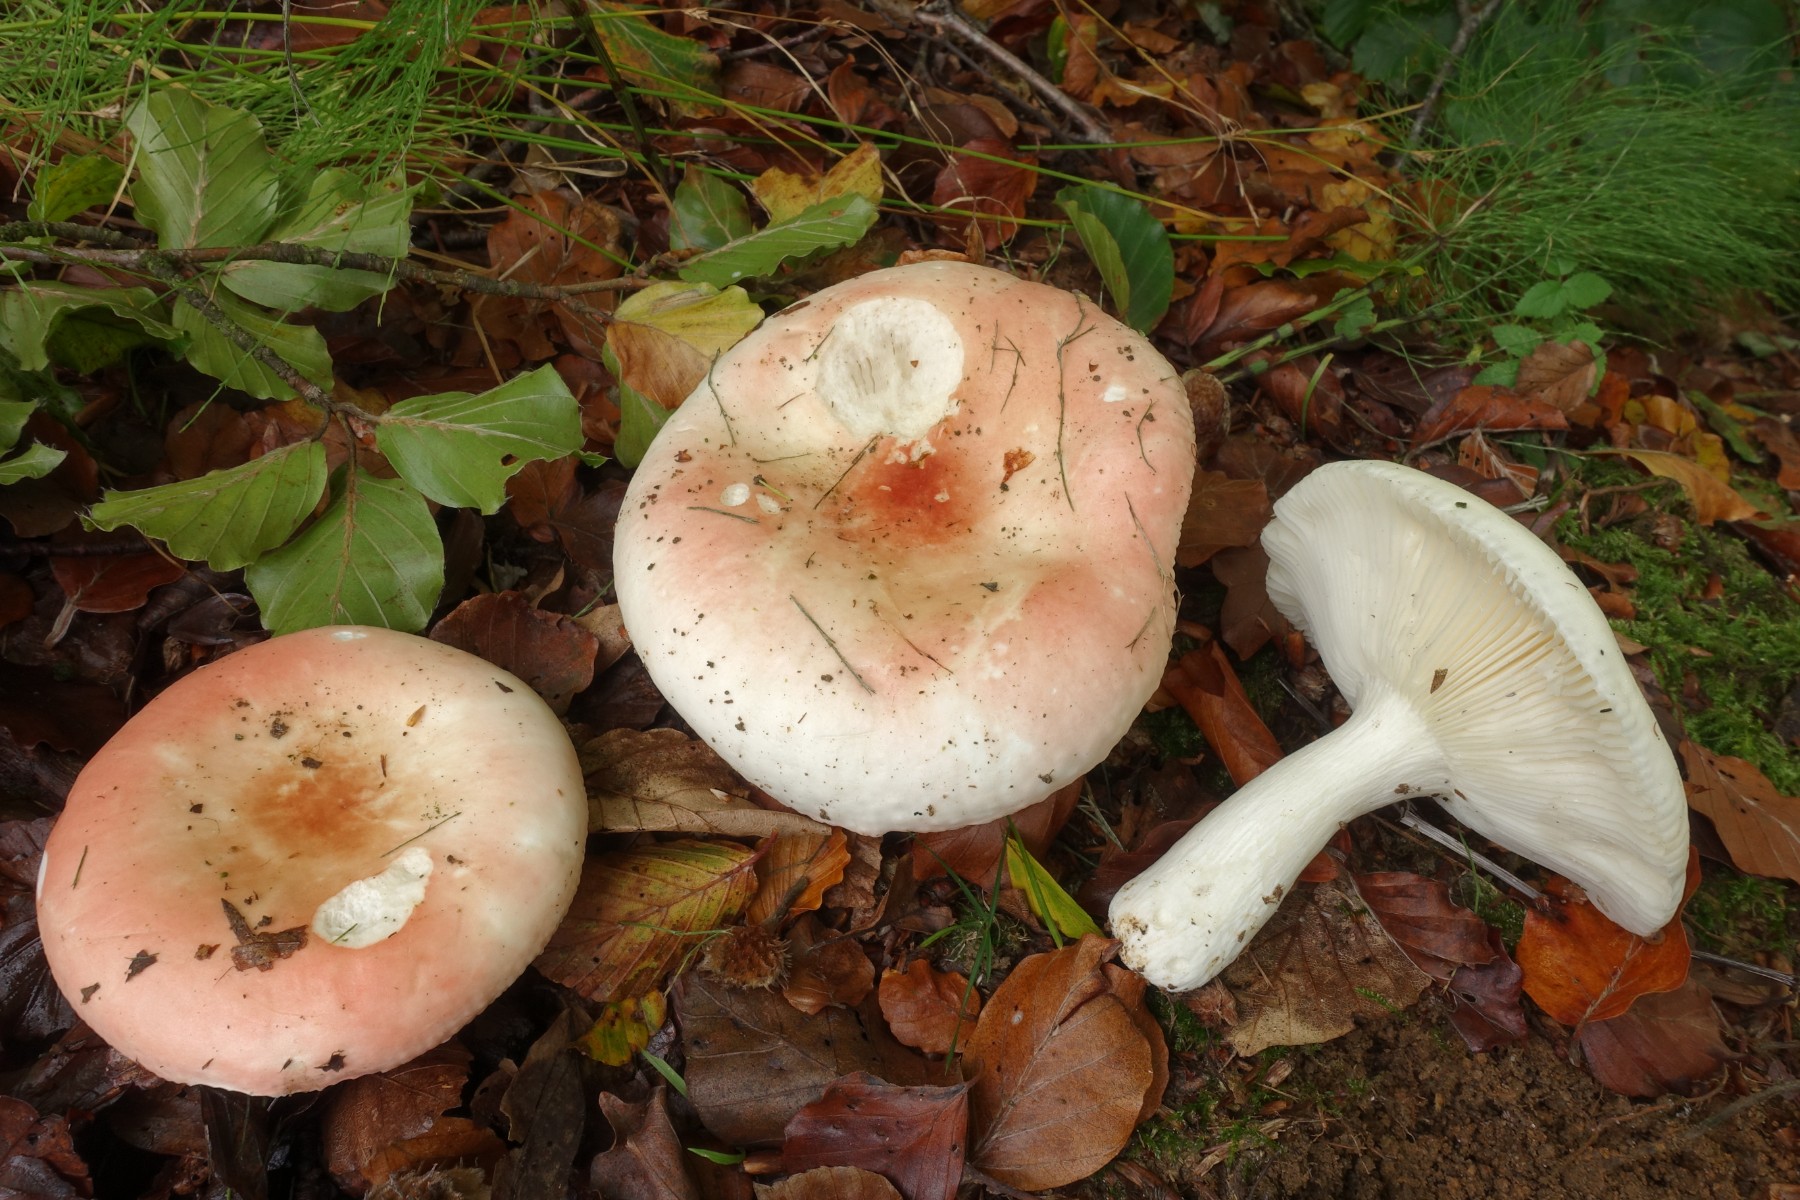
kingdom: Fungi
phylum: Basidiomycota
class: Agaricomycetes
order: Russulales
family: Russulaceae
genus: Russula
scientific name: Russula aurora
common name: rosa skørhat
